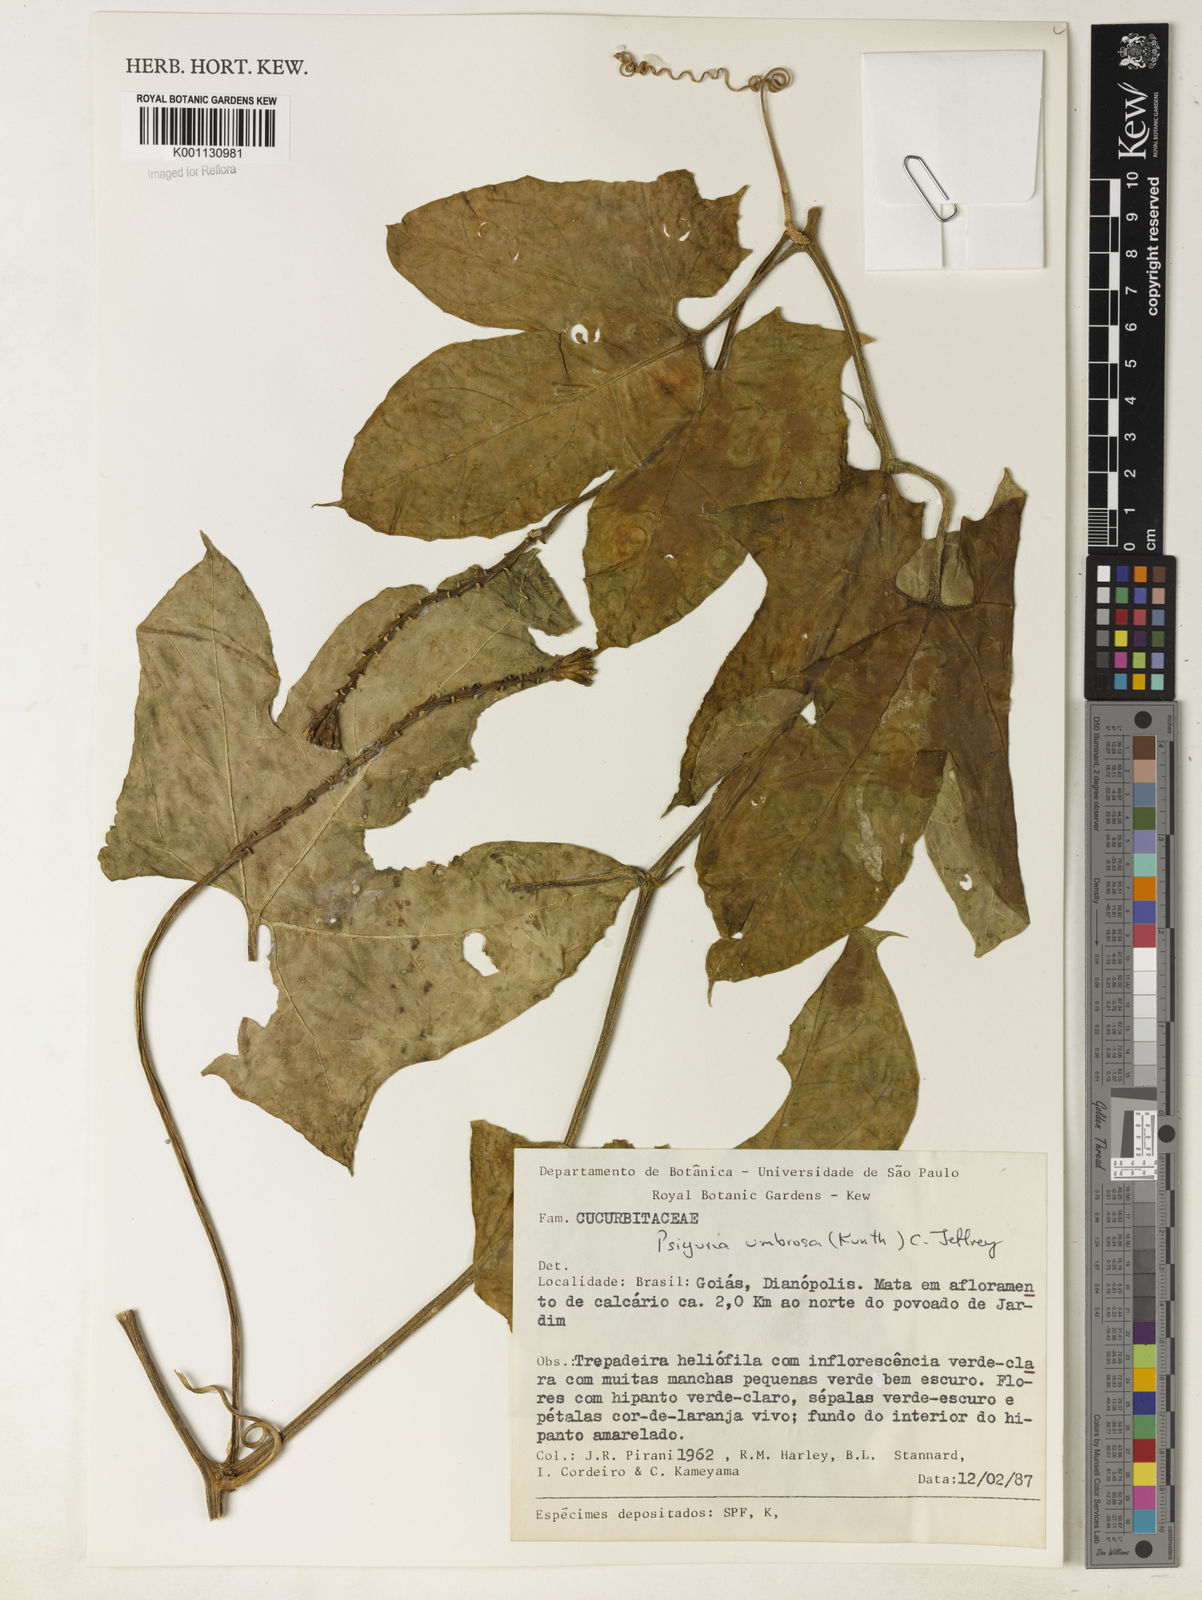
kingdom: Plantae
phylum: Tracheophyta
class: Magnoliopsida
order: Cucurbitales
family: Cucurbitaceae
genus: Psiguria
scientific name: Psiguria umbrosa
